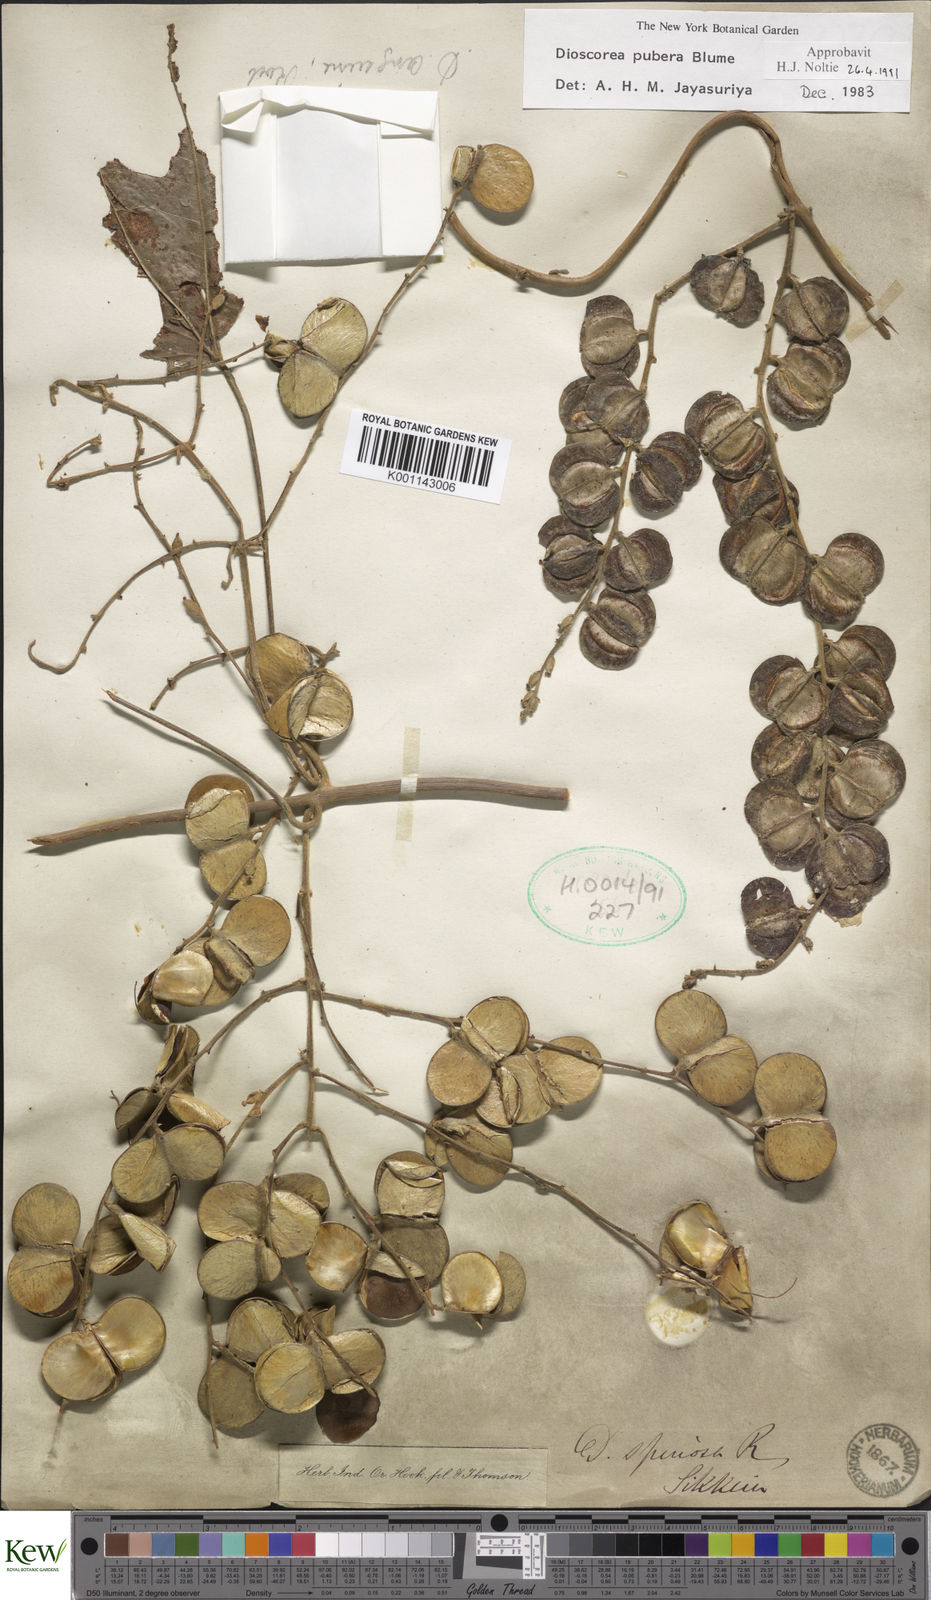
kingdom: Plantae
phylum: Tracheophyta
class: Liliopsida
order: Dioscoreales
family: Dioscoreaceae
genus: Dioscorea
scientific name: Dioscorea pubera
